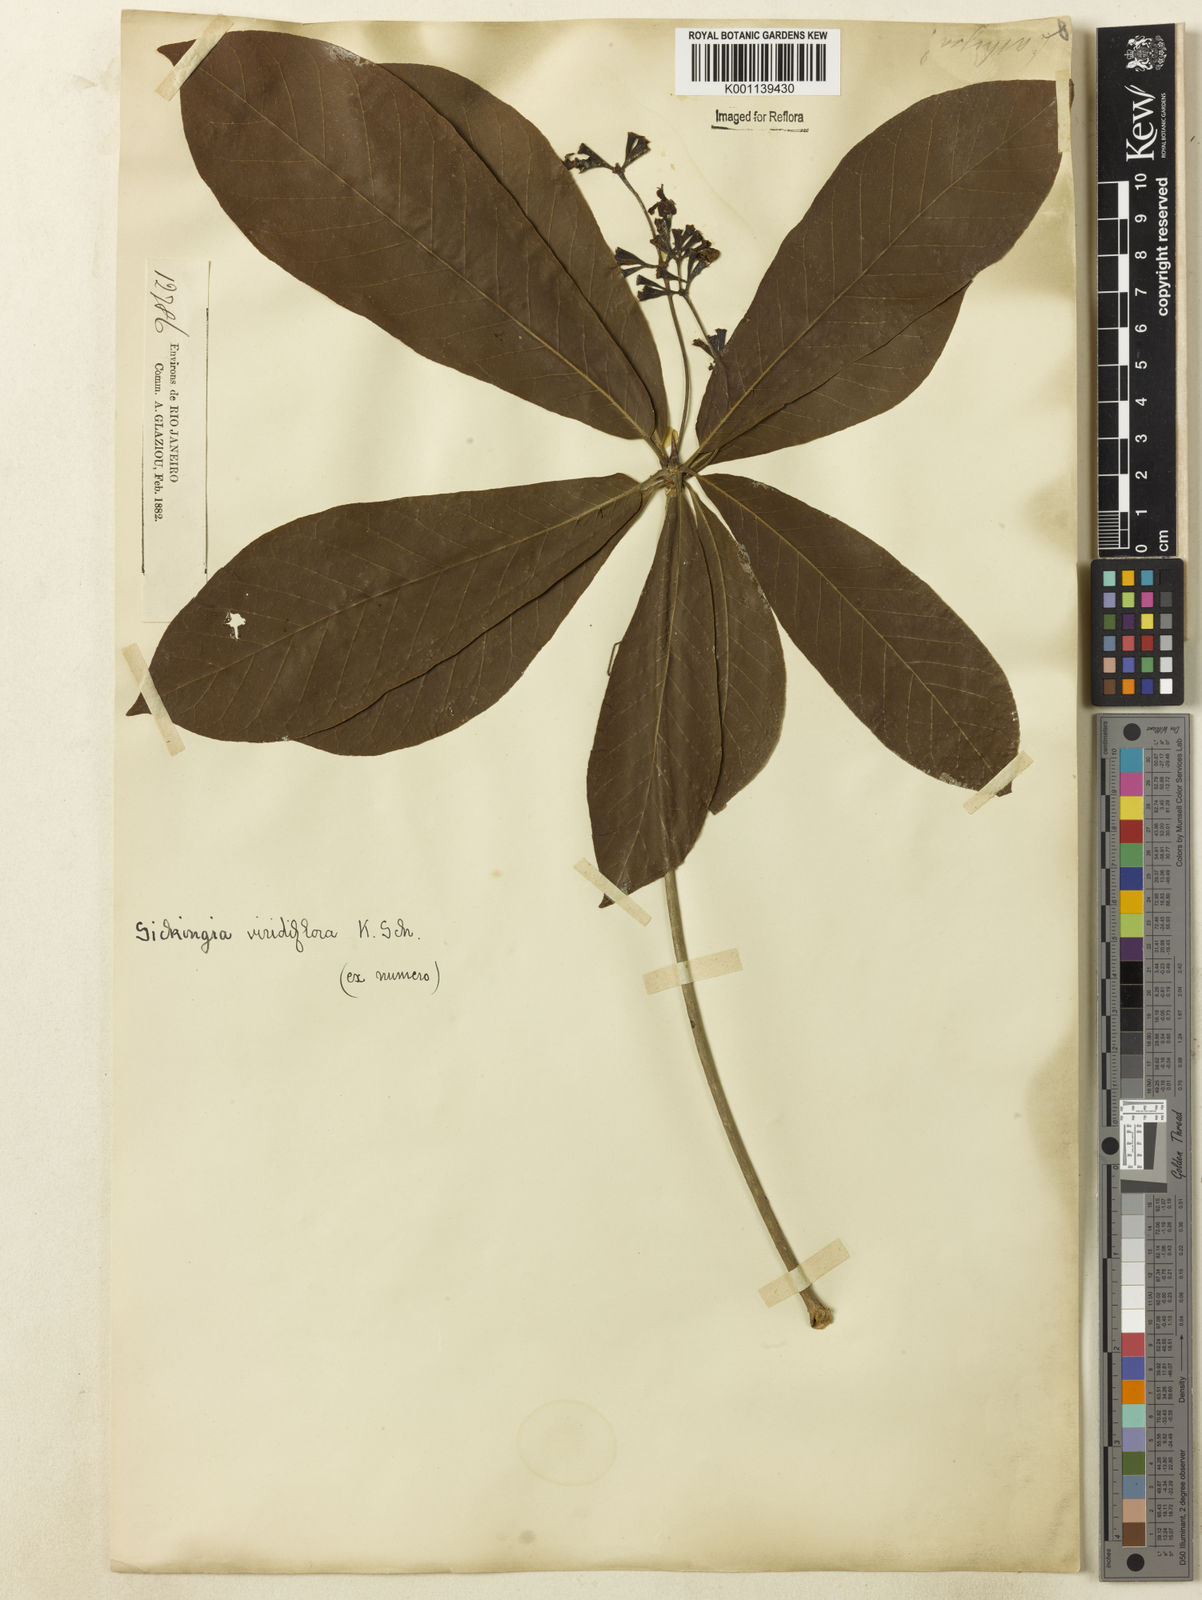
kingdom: Plantae
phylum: Tracheophyta
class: Magnoliopsida
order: Gentianales
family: Rubiaceae
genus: Simira
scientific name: Simira
